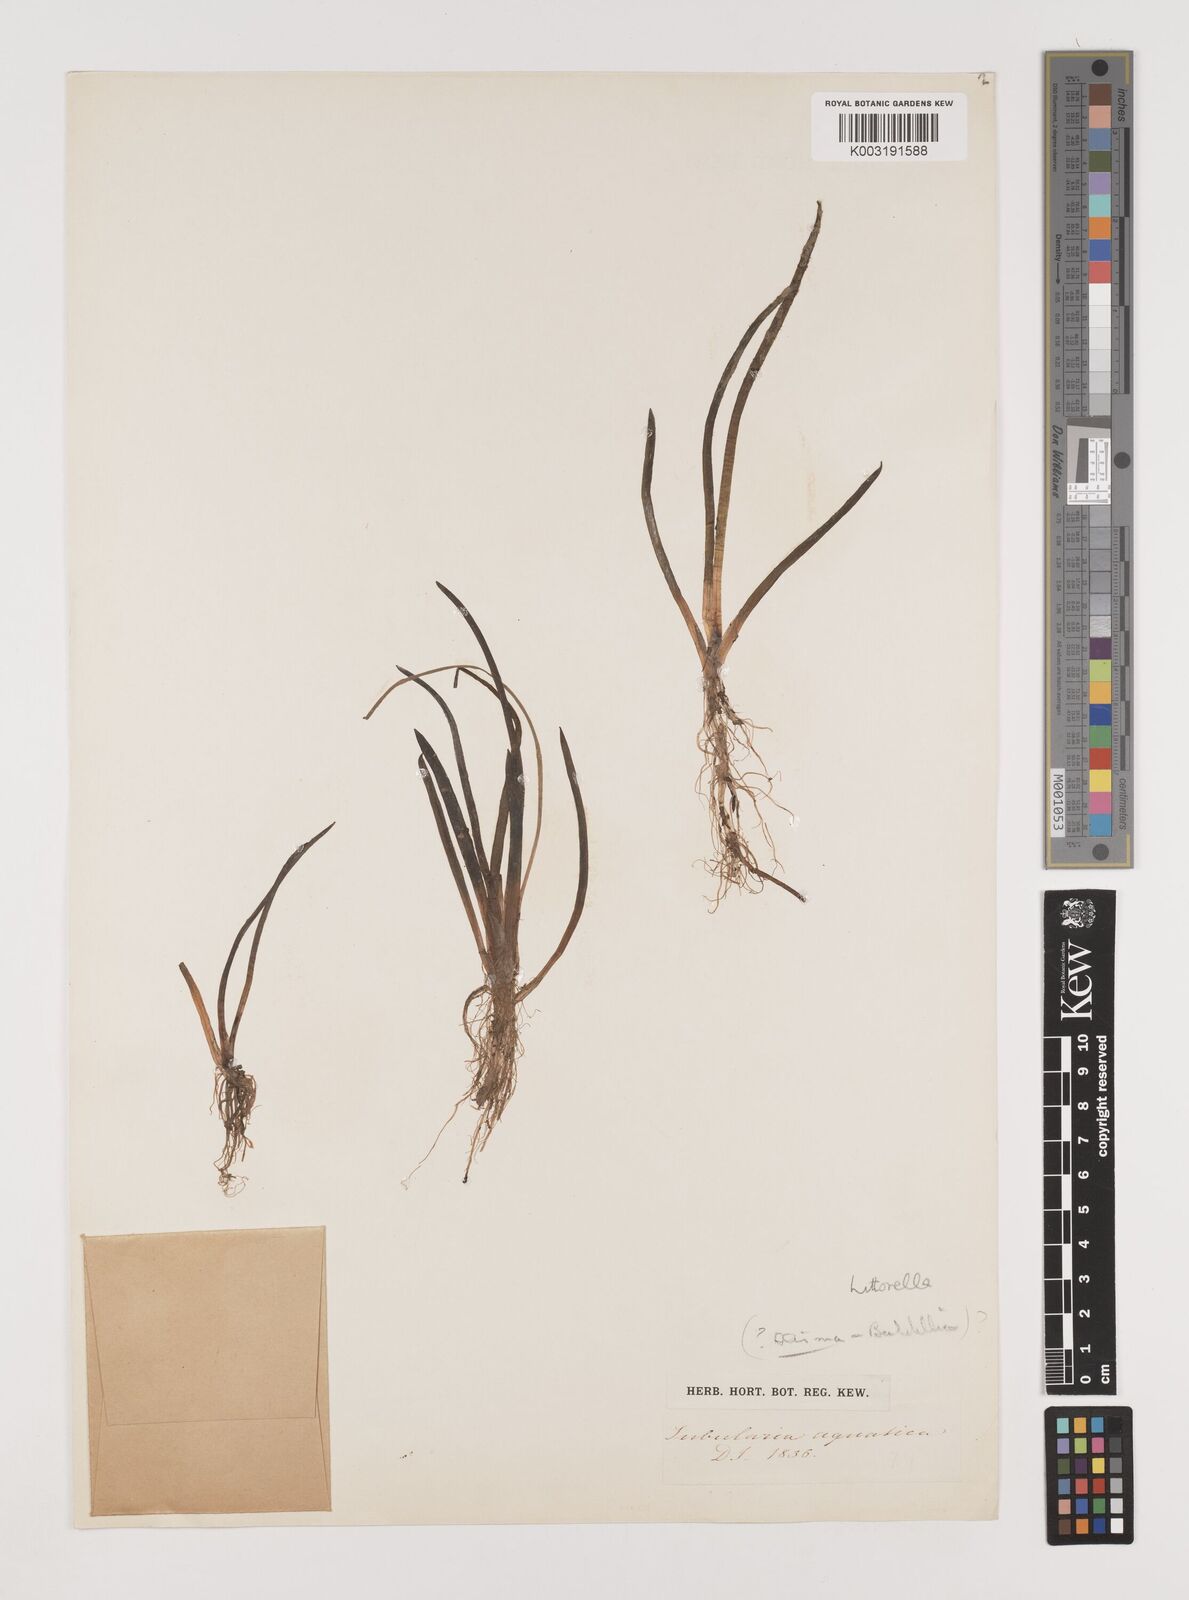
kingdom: Plantae
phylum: Tracheophyta
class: Liliopsida
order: Alismatales
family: Alismataceae
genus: Luronium
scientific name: Luronium
